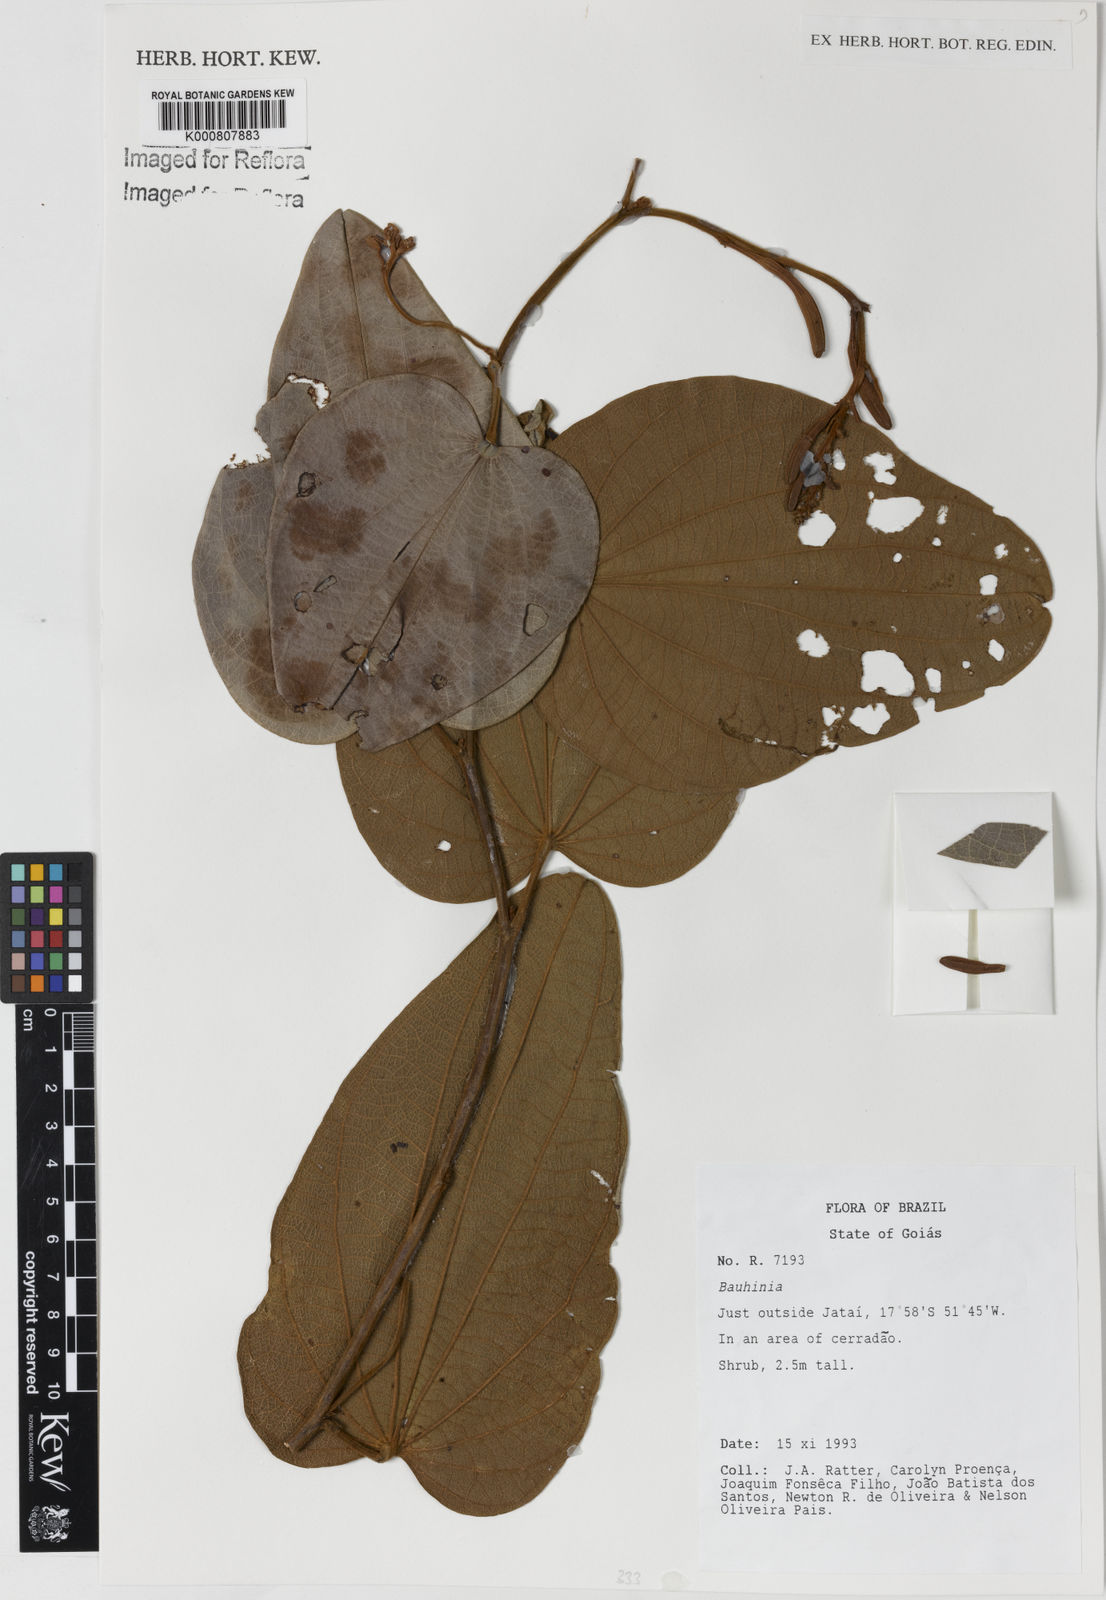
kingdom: Plantae
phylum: Tracheophyta
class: Magnoliopsida
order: Fabales
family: Fabaceae
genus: Bauhinia
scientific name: Bauhinia
